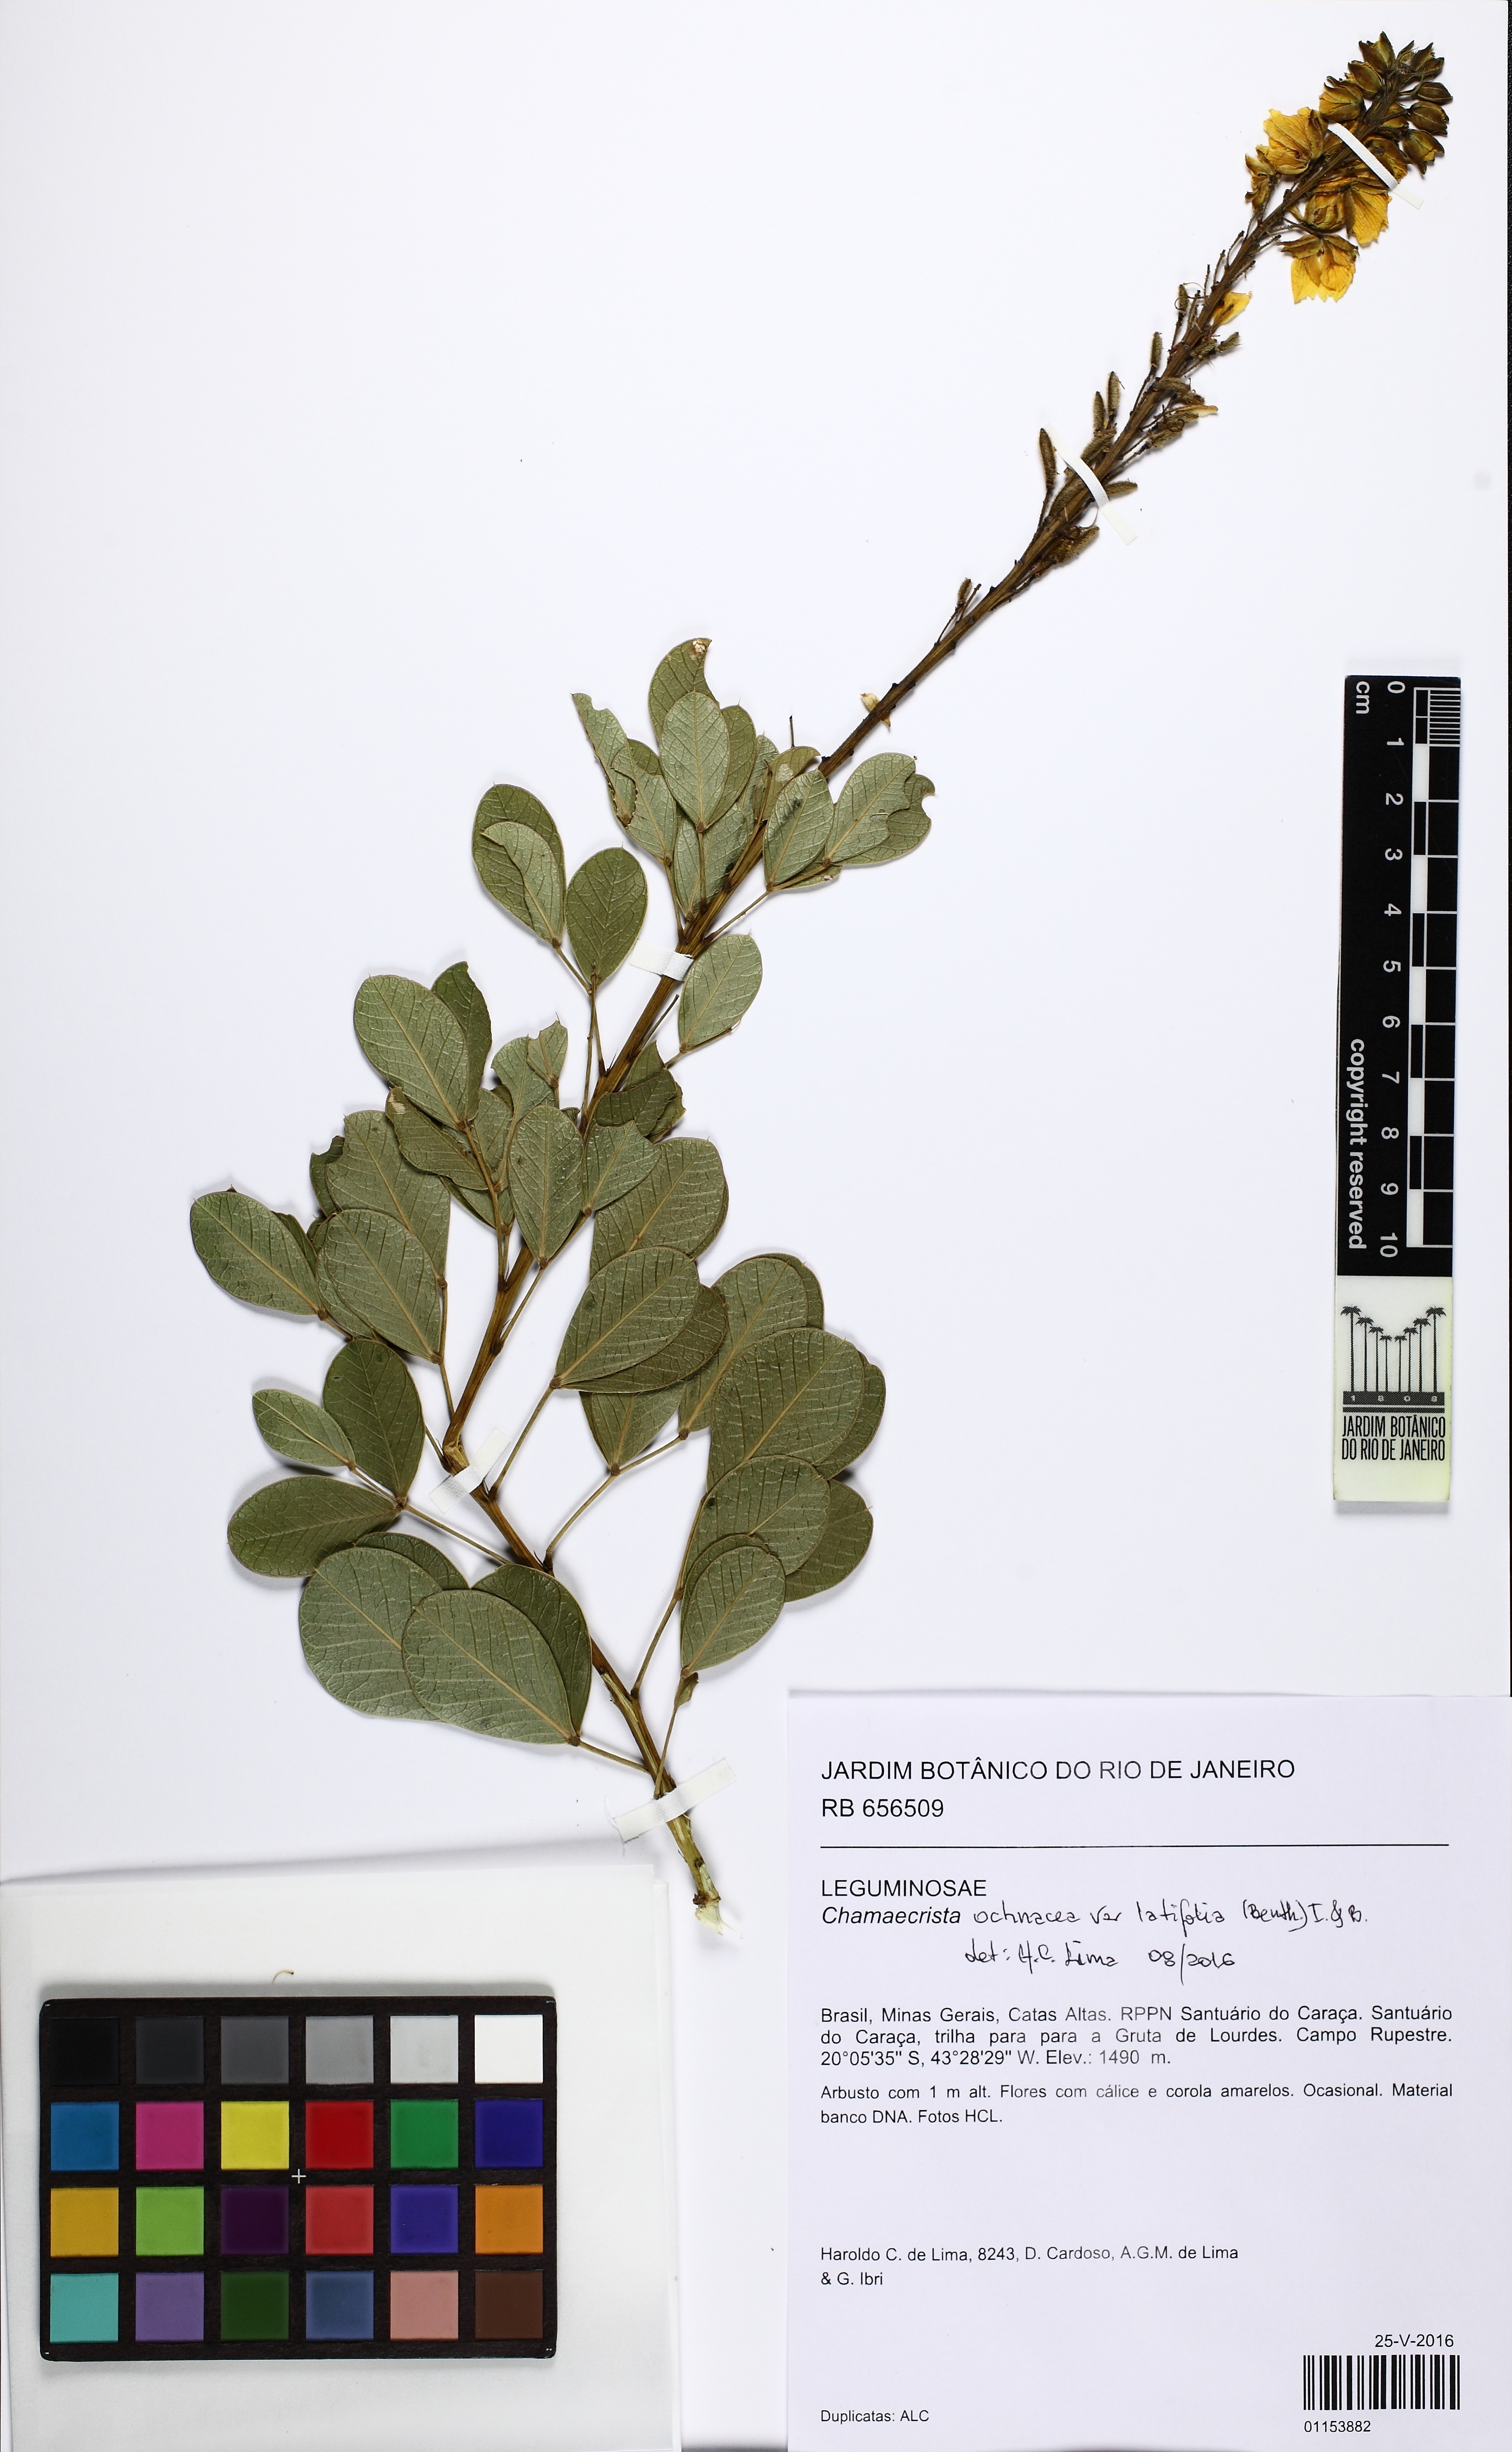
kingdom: Plantae
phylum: Tracheophyta
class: Magnoliopsida
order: Fabales
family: Fabaceae
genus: Chamaecrista
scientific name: Chamaecrista ochnacea
